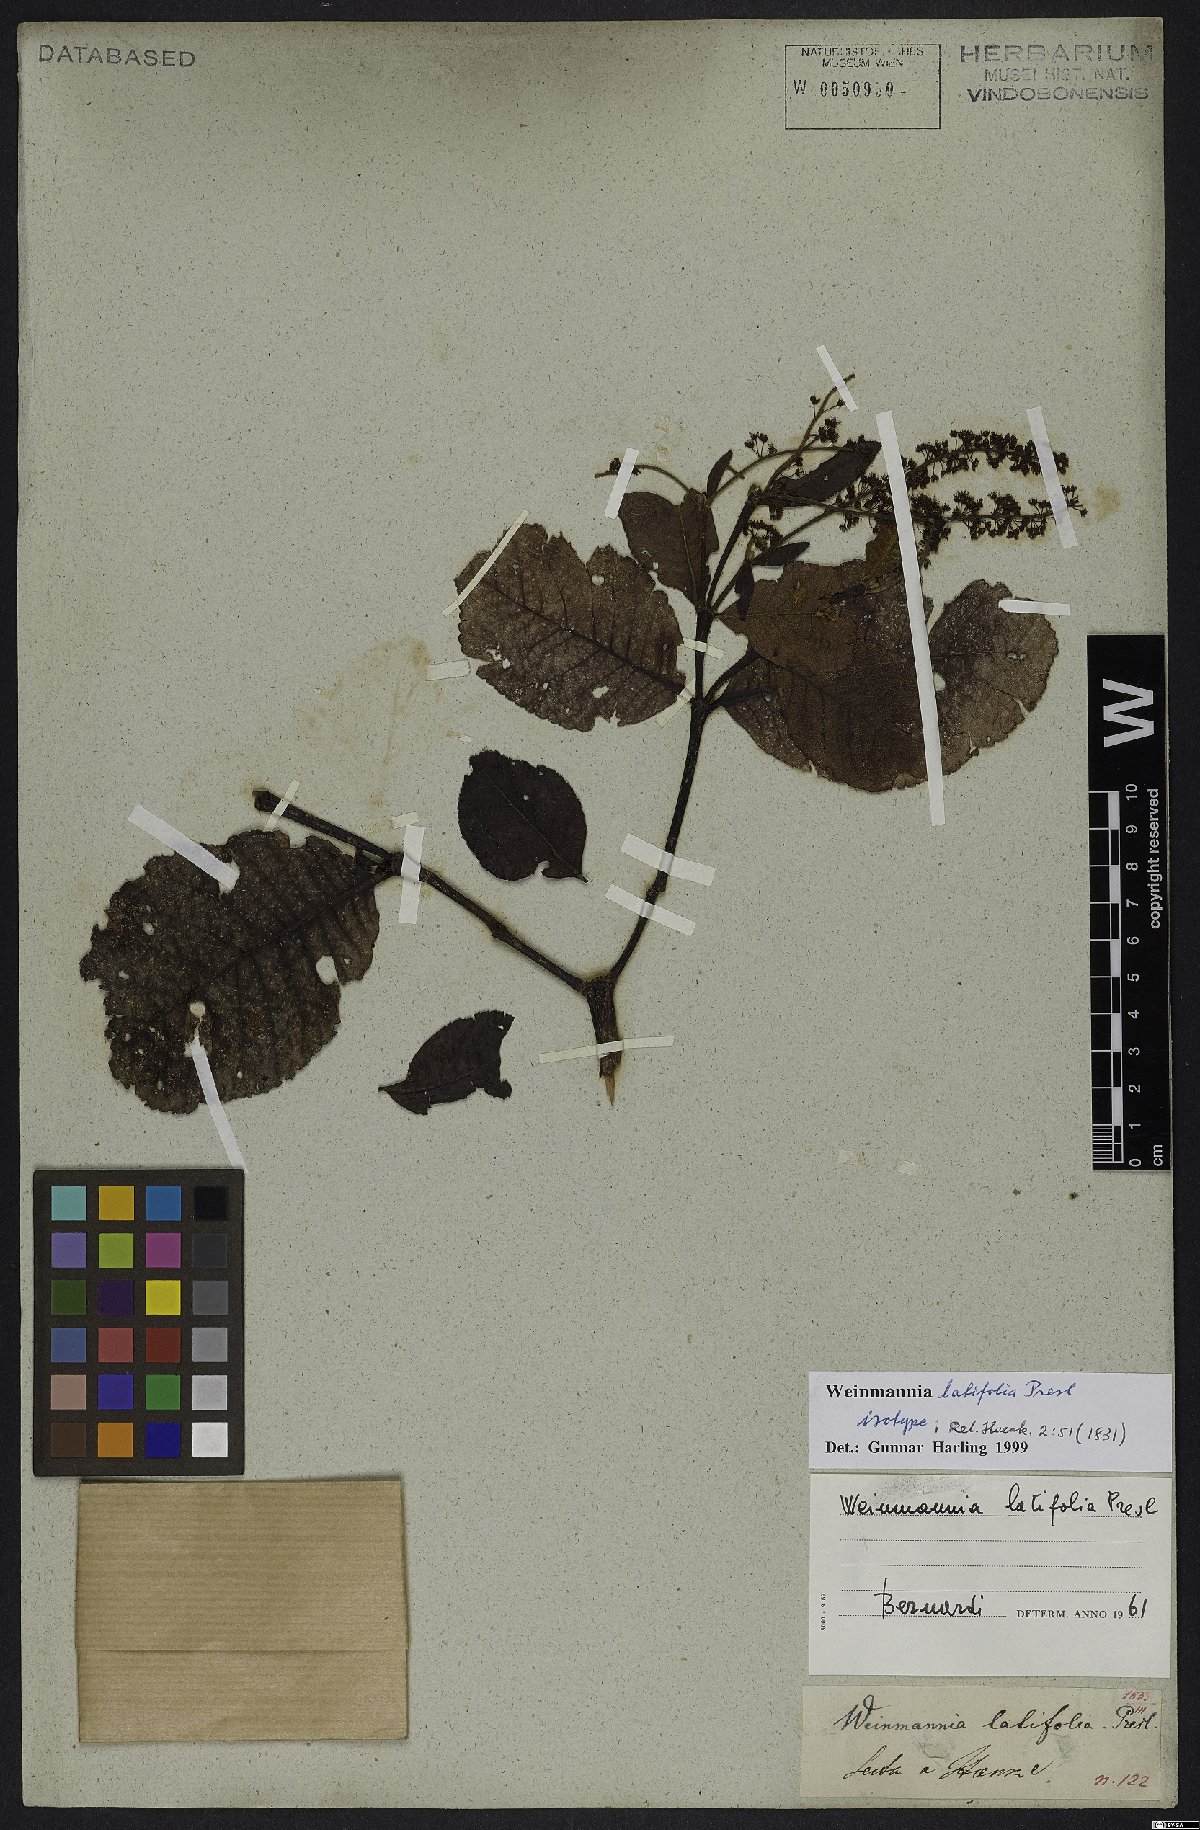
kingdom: Plantae
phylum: Tracheophyta
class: Magnoliopsida
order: Oxalidales
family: Cunoniaceae
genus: Weinmannia
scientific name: Weinmannia latifolia
